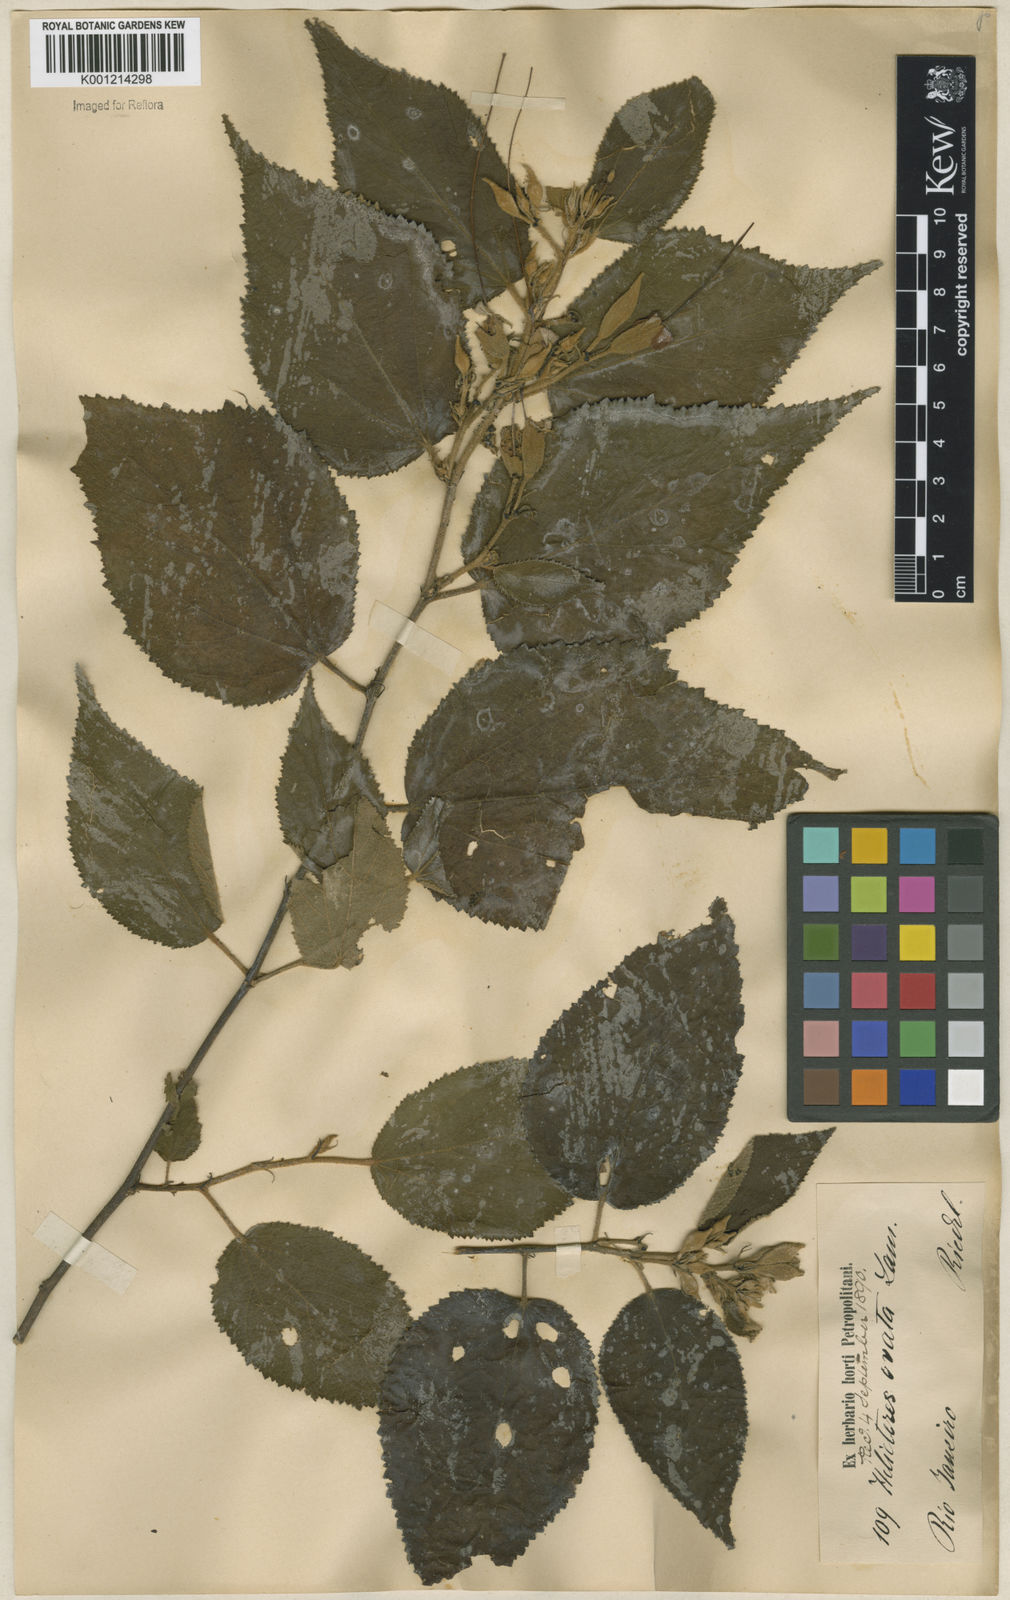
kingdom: Plantae
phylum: Tracheophyta
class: Magnoliopsida
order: Malvales
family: Malvaceae
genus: Helicteres
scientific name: Helicteres ovata
